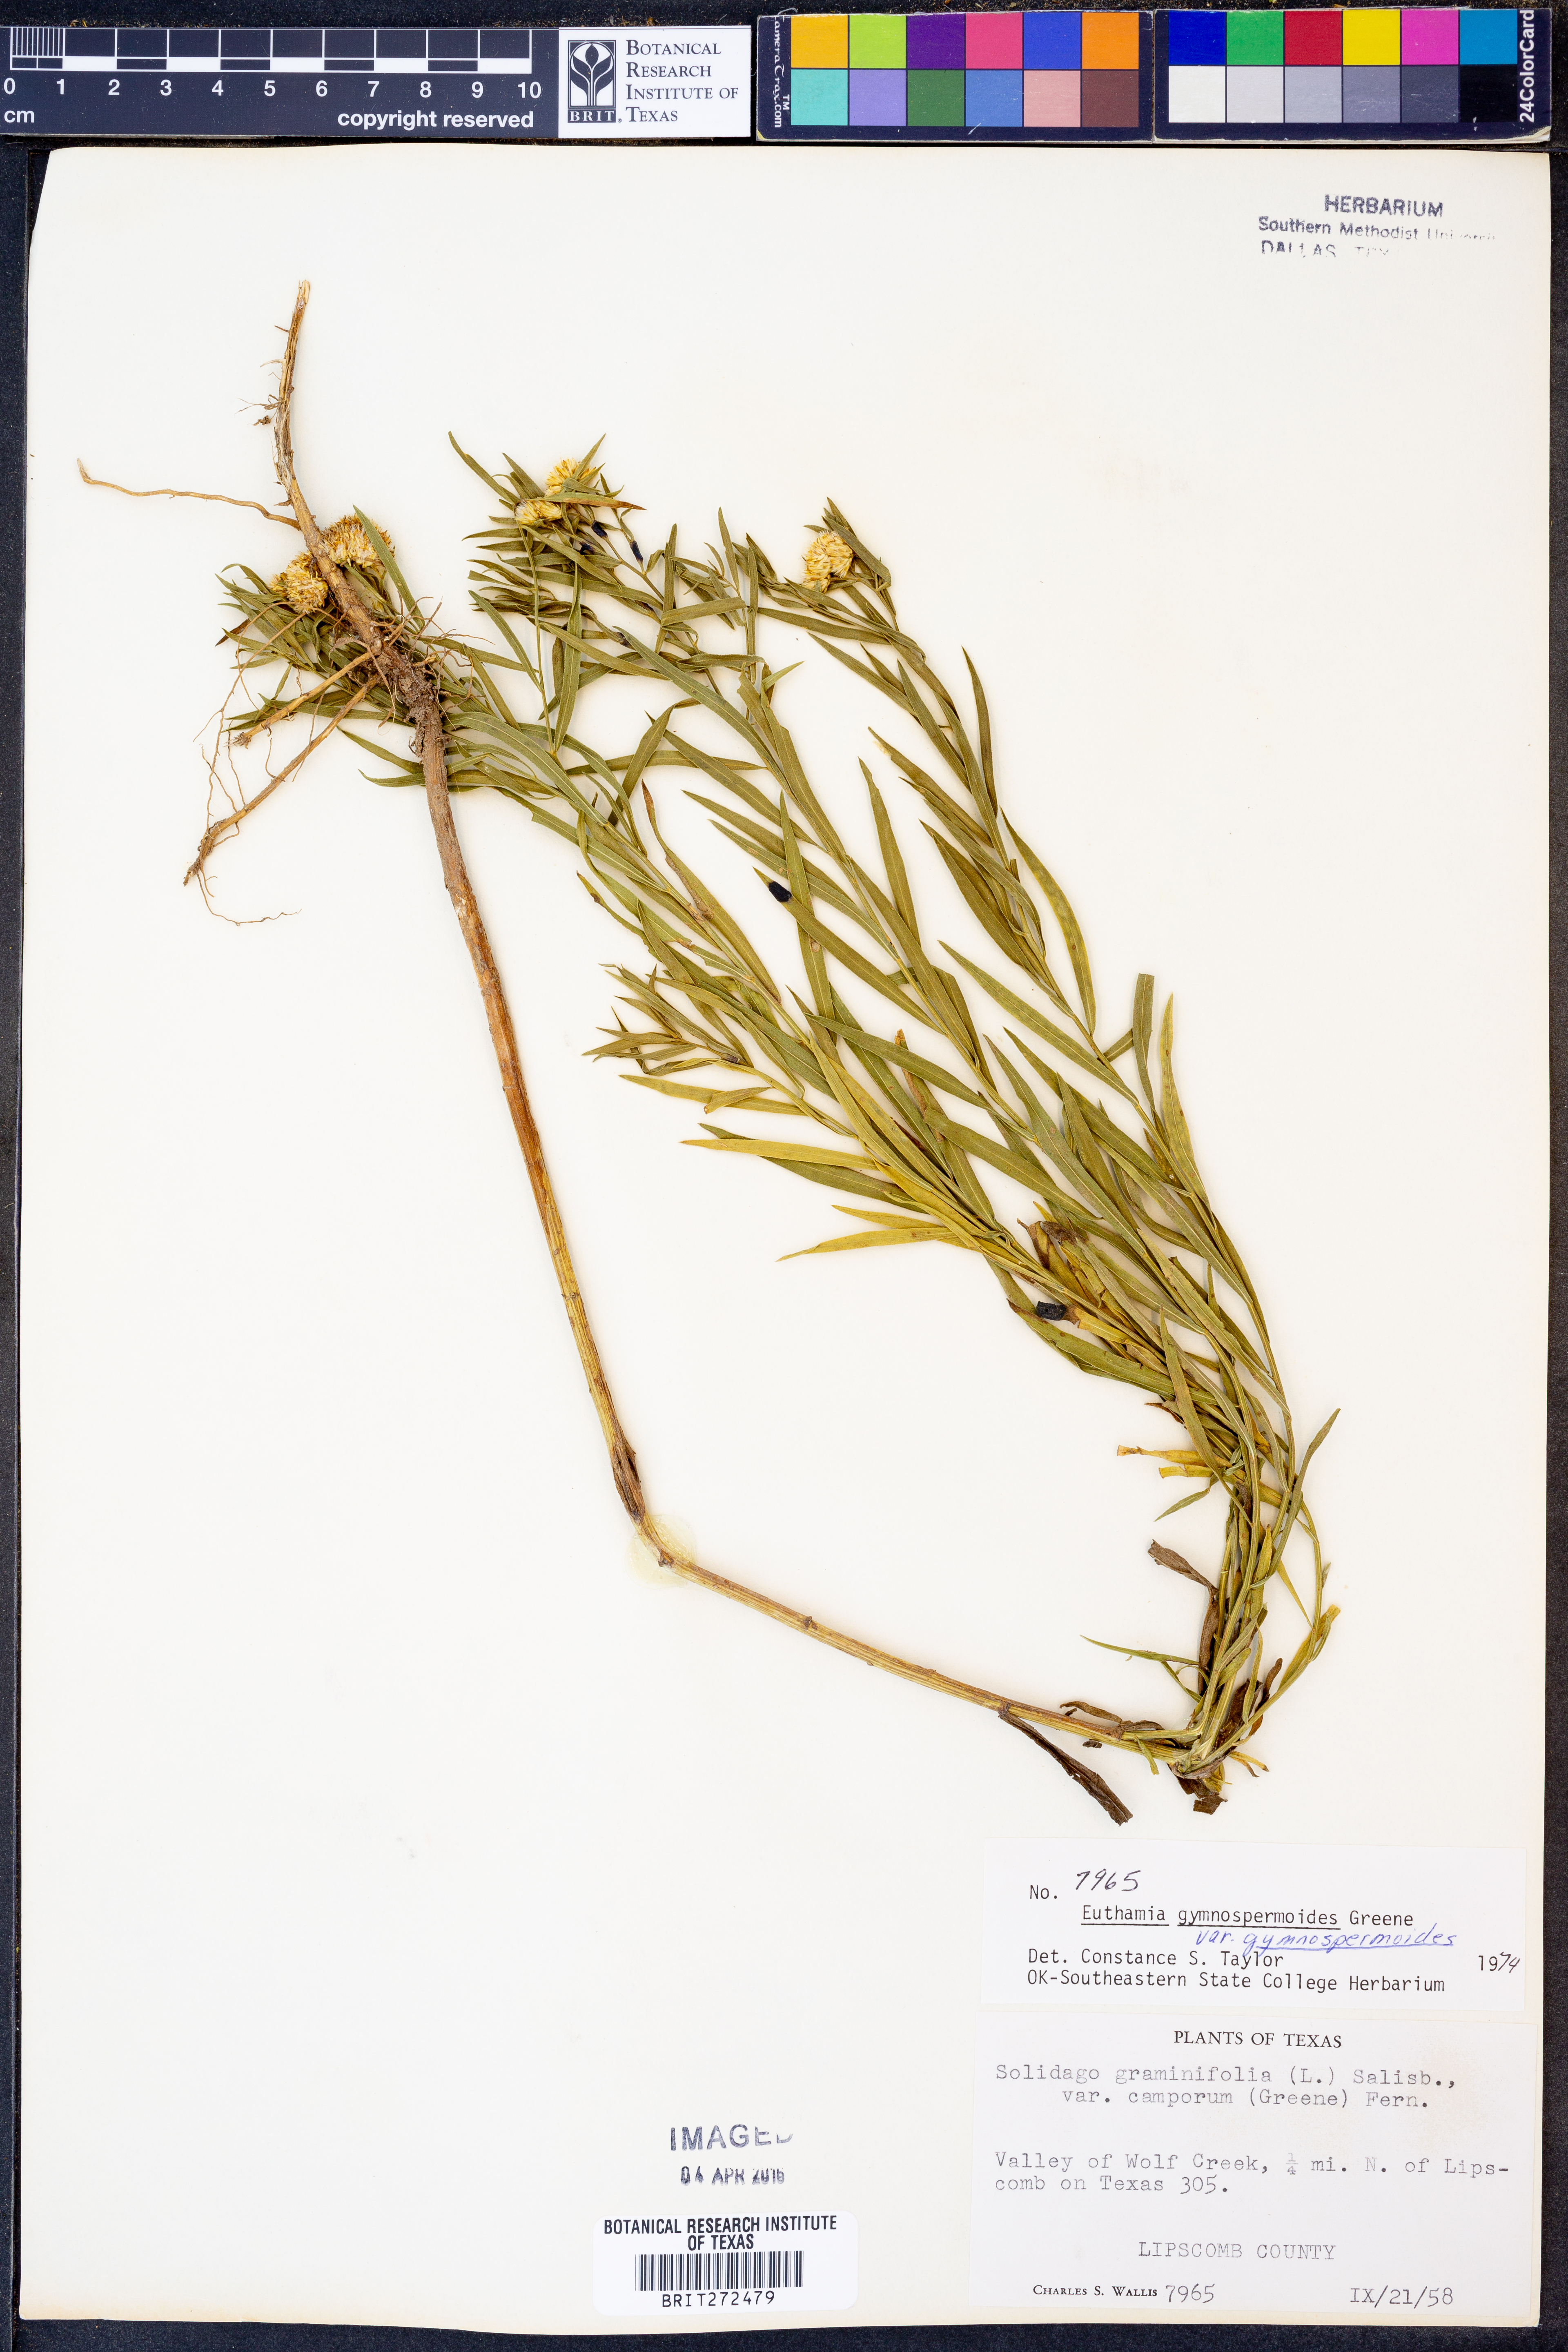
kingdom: Plantae
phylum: Tracheophyta
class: Magnoliopsida
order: Asterales
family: Asteraceae
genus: Euthamia
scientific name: Euthamia gymnospermoides
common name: Great plains goldentop
